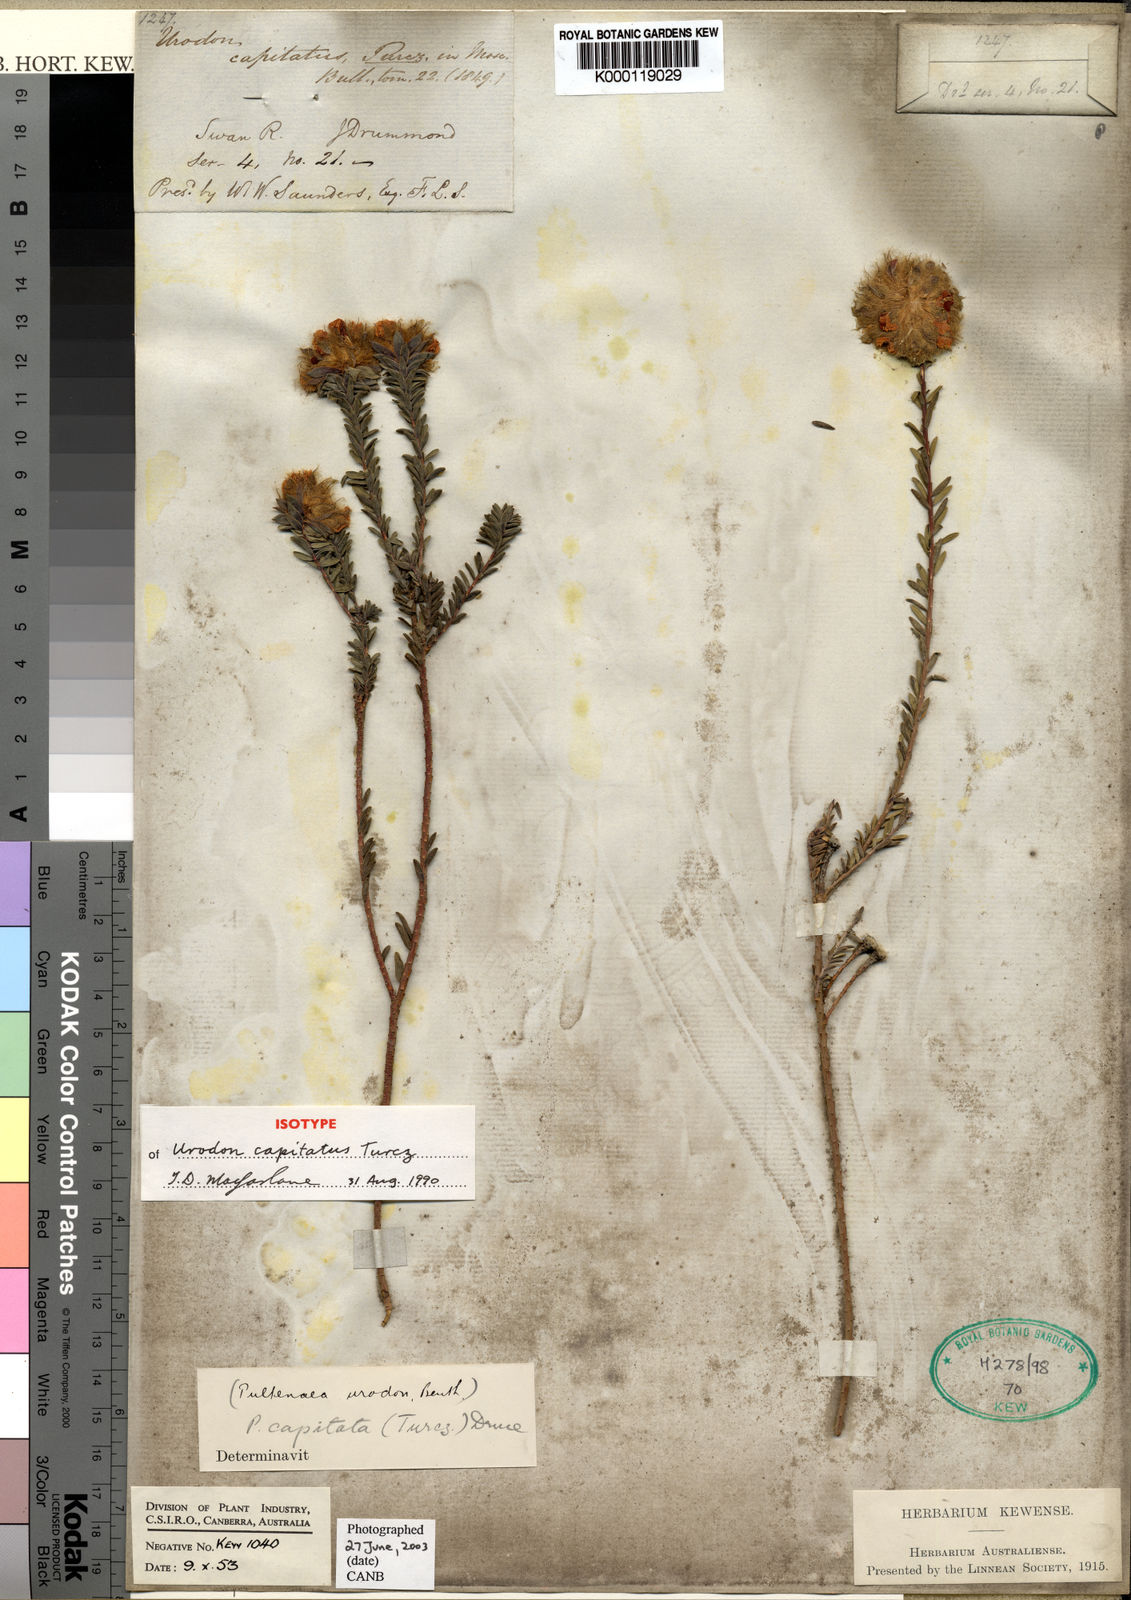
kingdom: Plantae
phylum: Tracheophyta
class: Magnoliopsida
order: Fabales
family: Fabaceae
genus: Urodon
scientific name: Urodon capitatus
